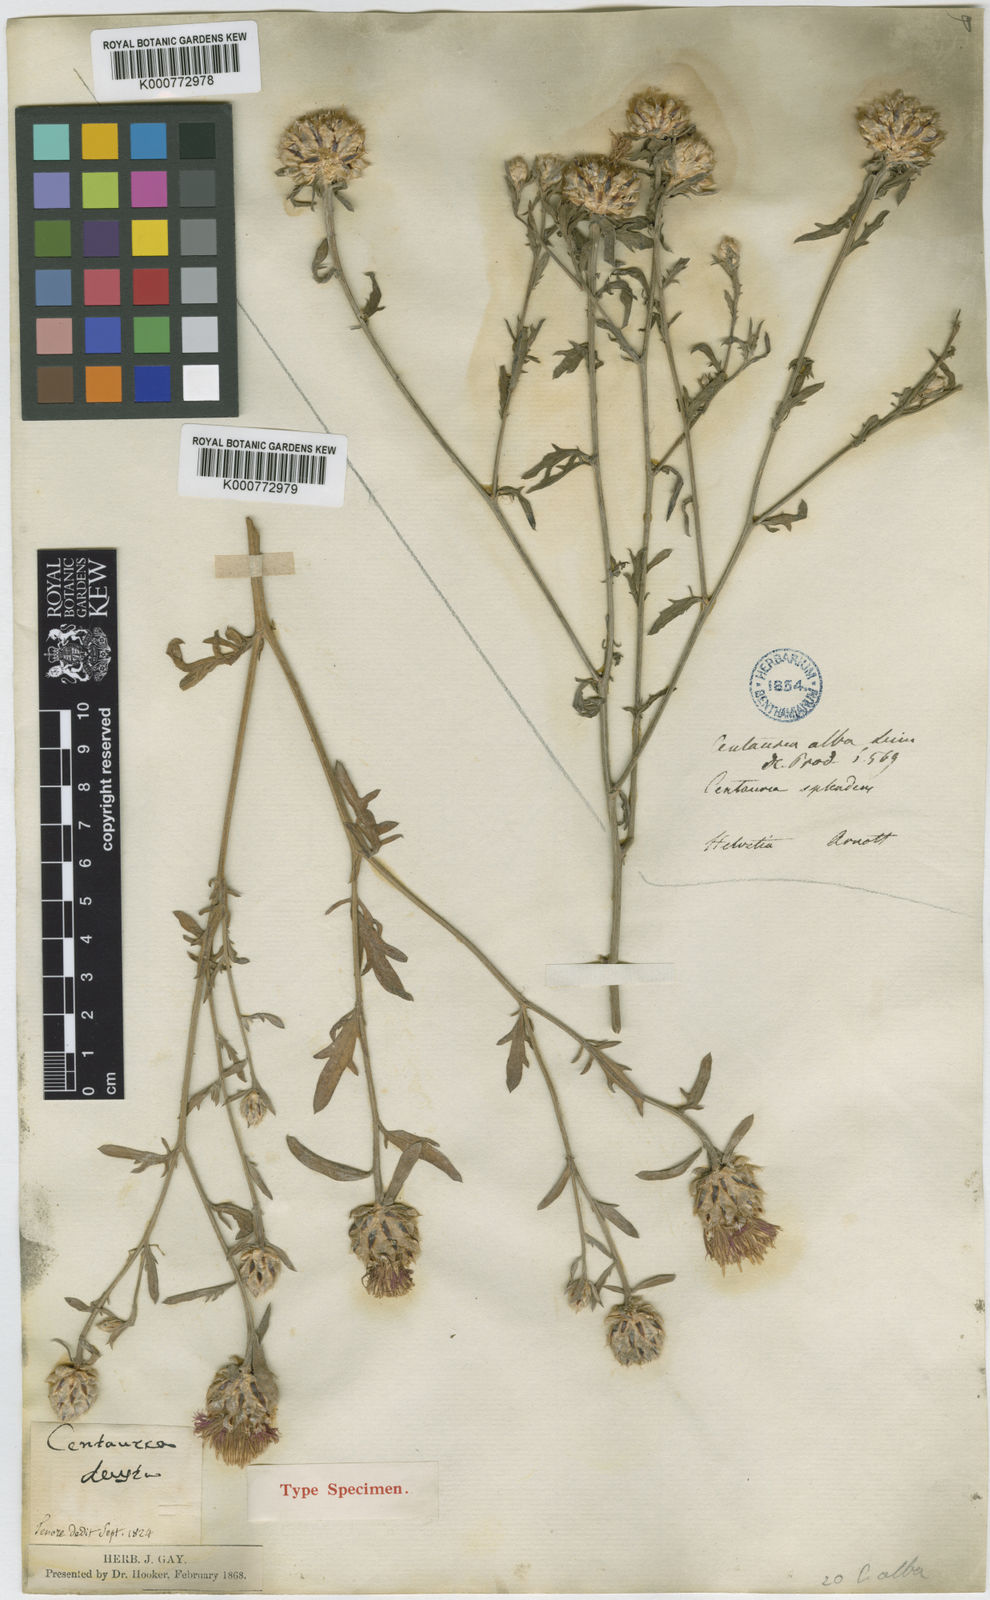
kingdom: Plantae
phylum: Tracheophyta
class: Magnoliopsida
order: Asterales
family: Asteraceae
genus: Centaurea
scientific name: Centaurea deusta
